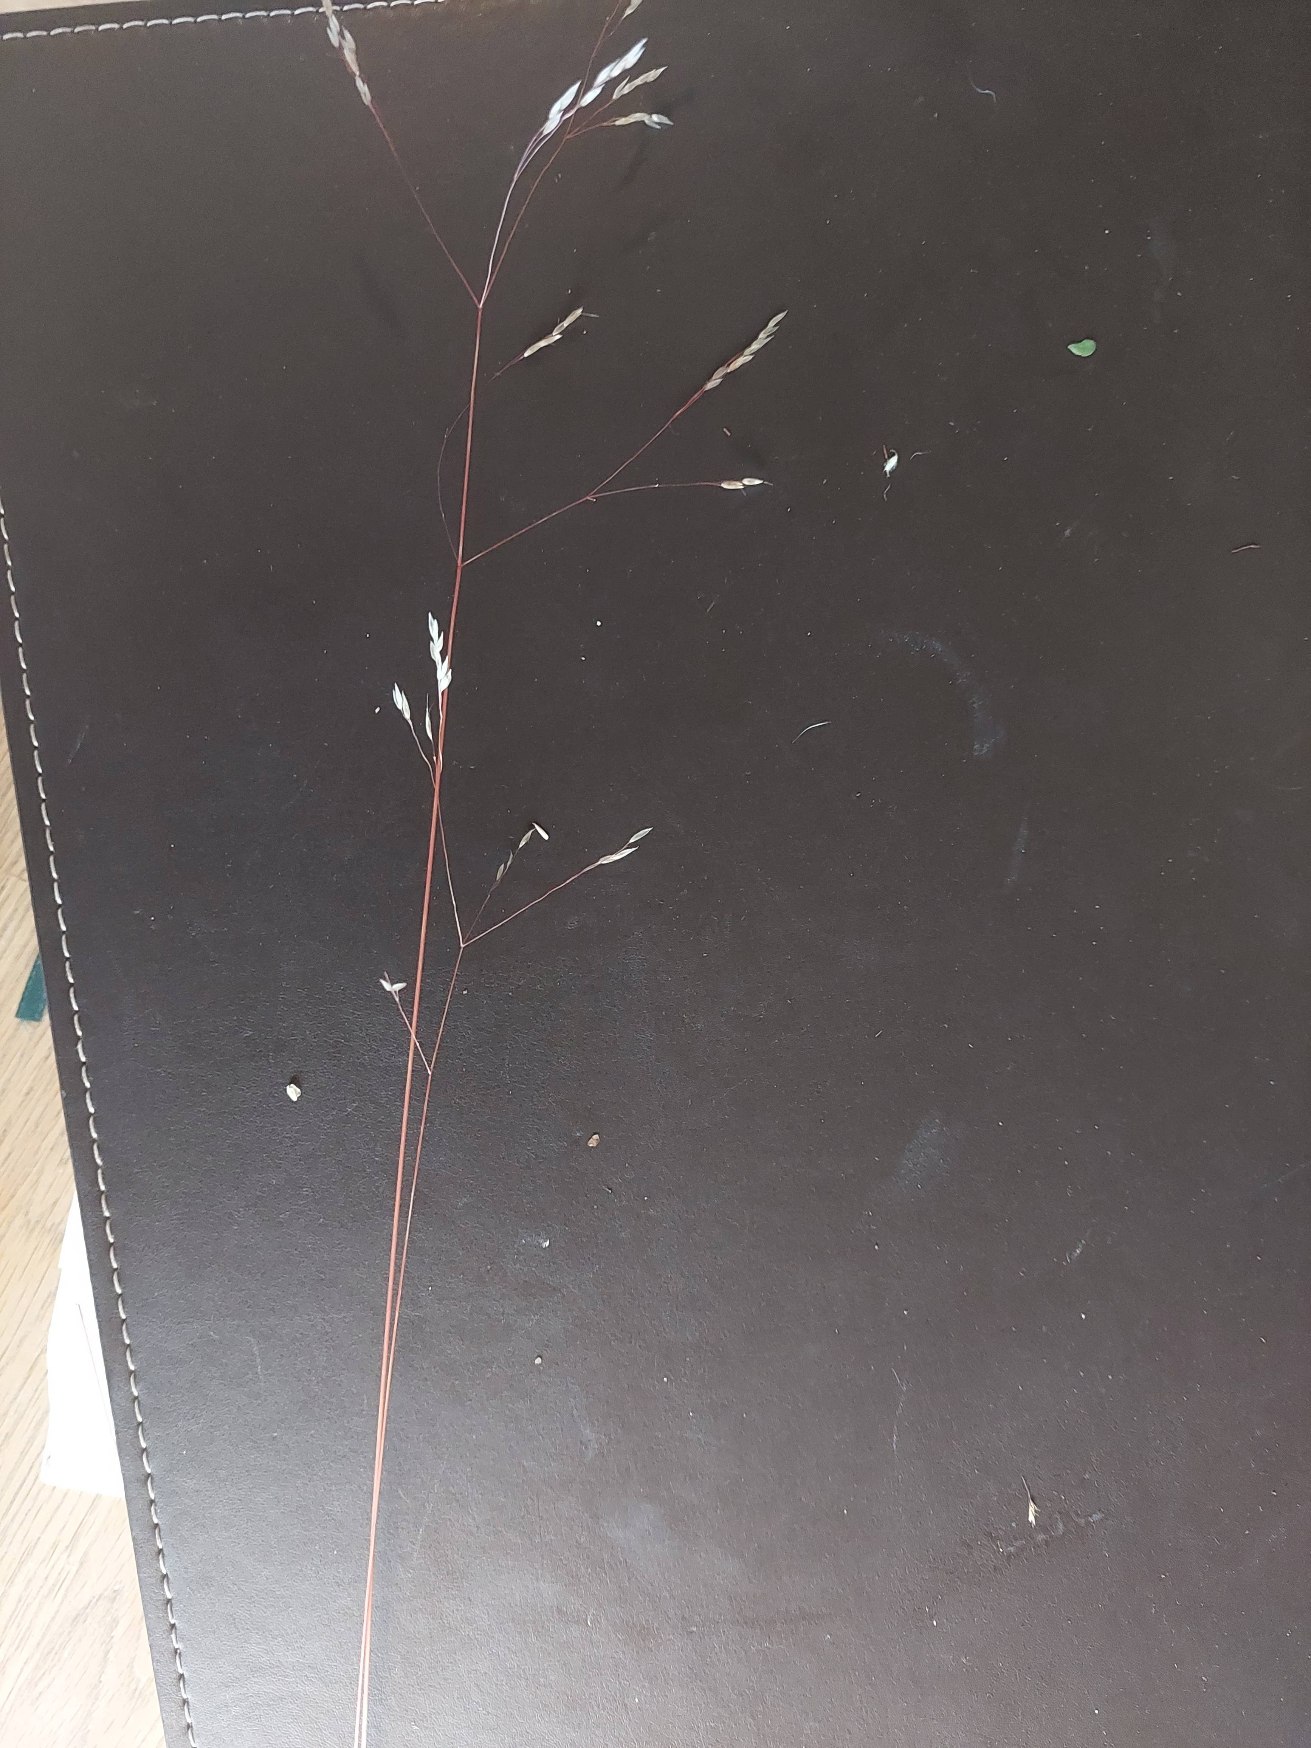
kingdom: Plantae
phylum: Tracheophyta
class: Liliopsida
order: Poales
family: Poaceae
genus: Avenella
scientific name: Avenella flexuosa
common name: Bølget bunke
